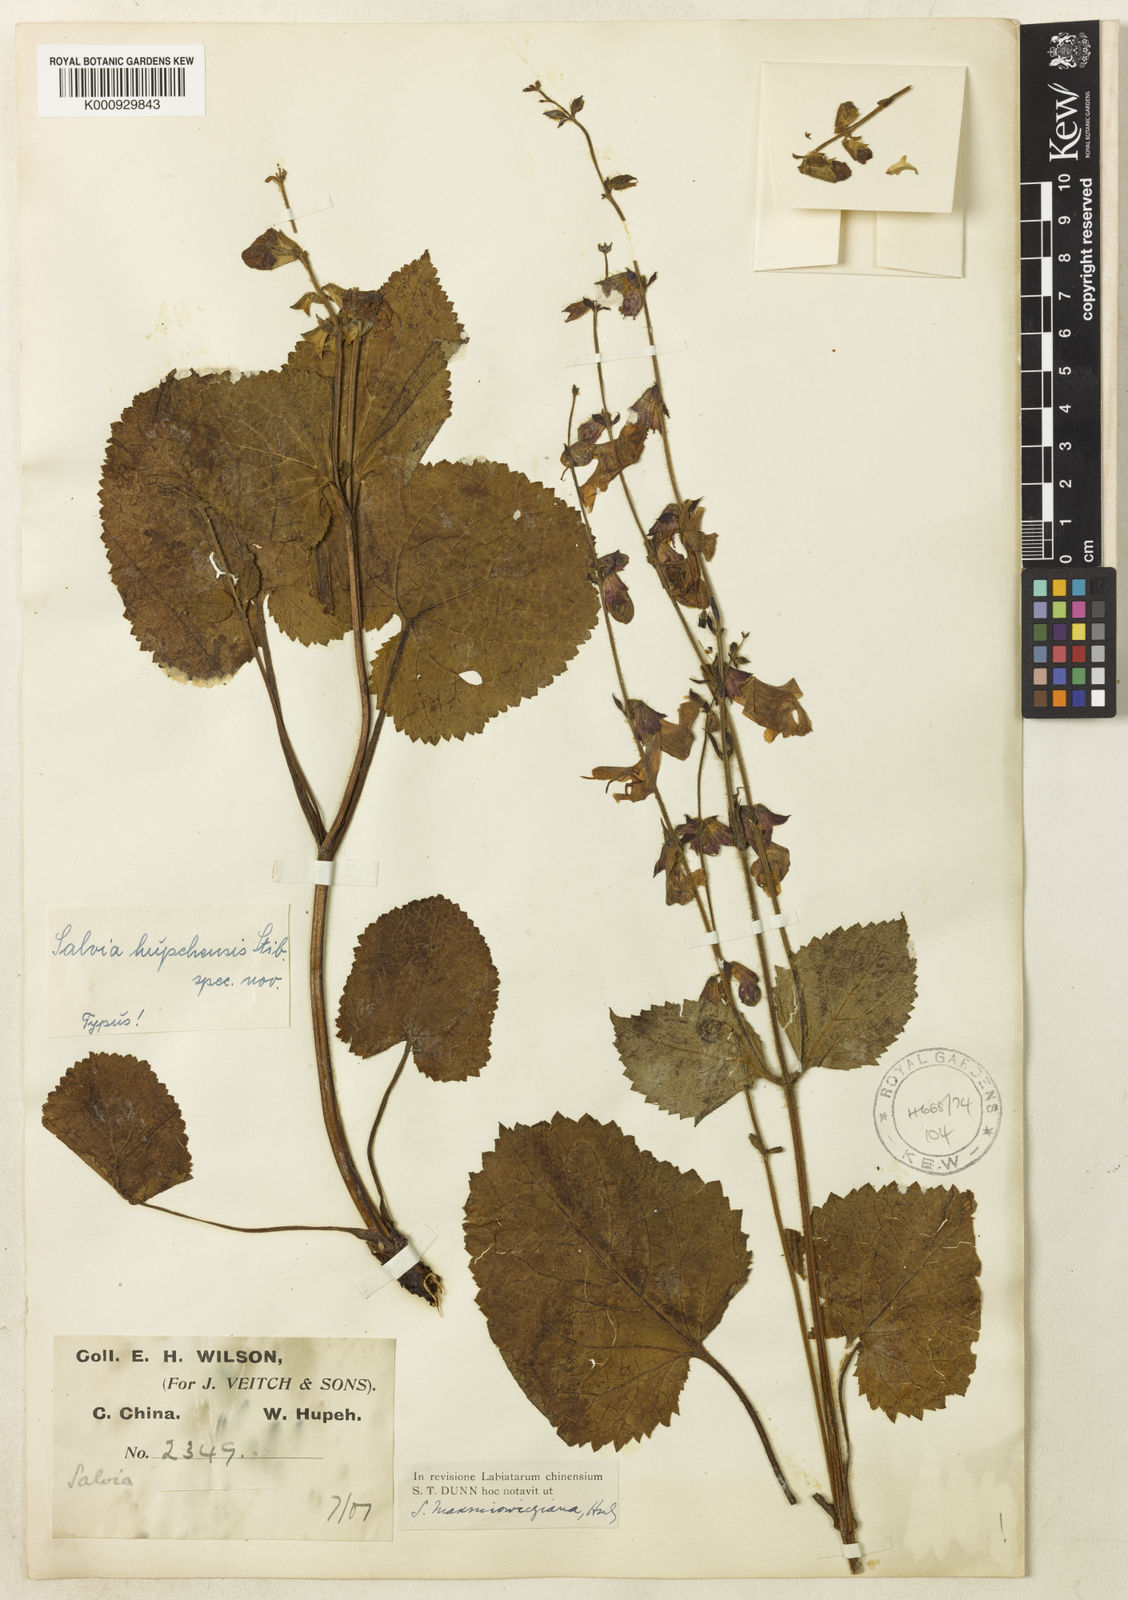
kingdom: Plantae
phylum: Tracheophyta
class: Magnoliopsida
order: Lamiales
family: Lamiaceae
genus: Salvia
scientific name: Salvia
